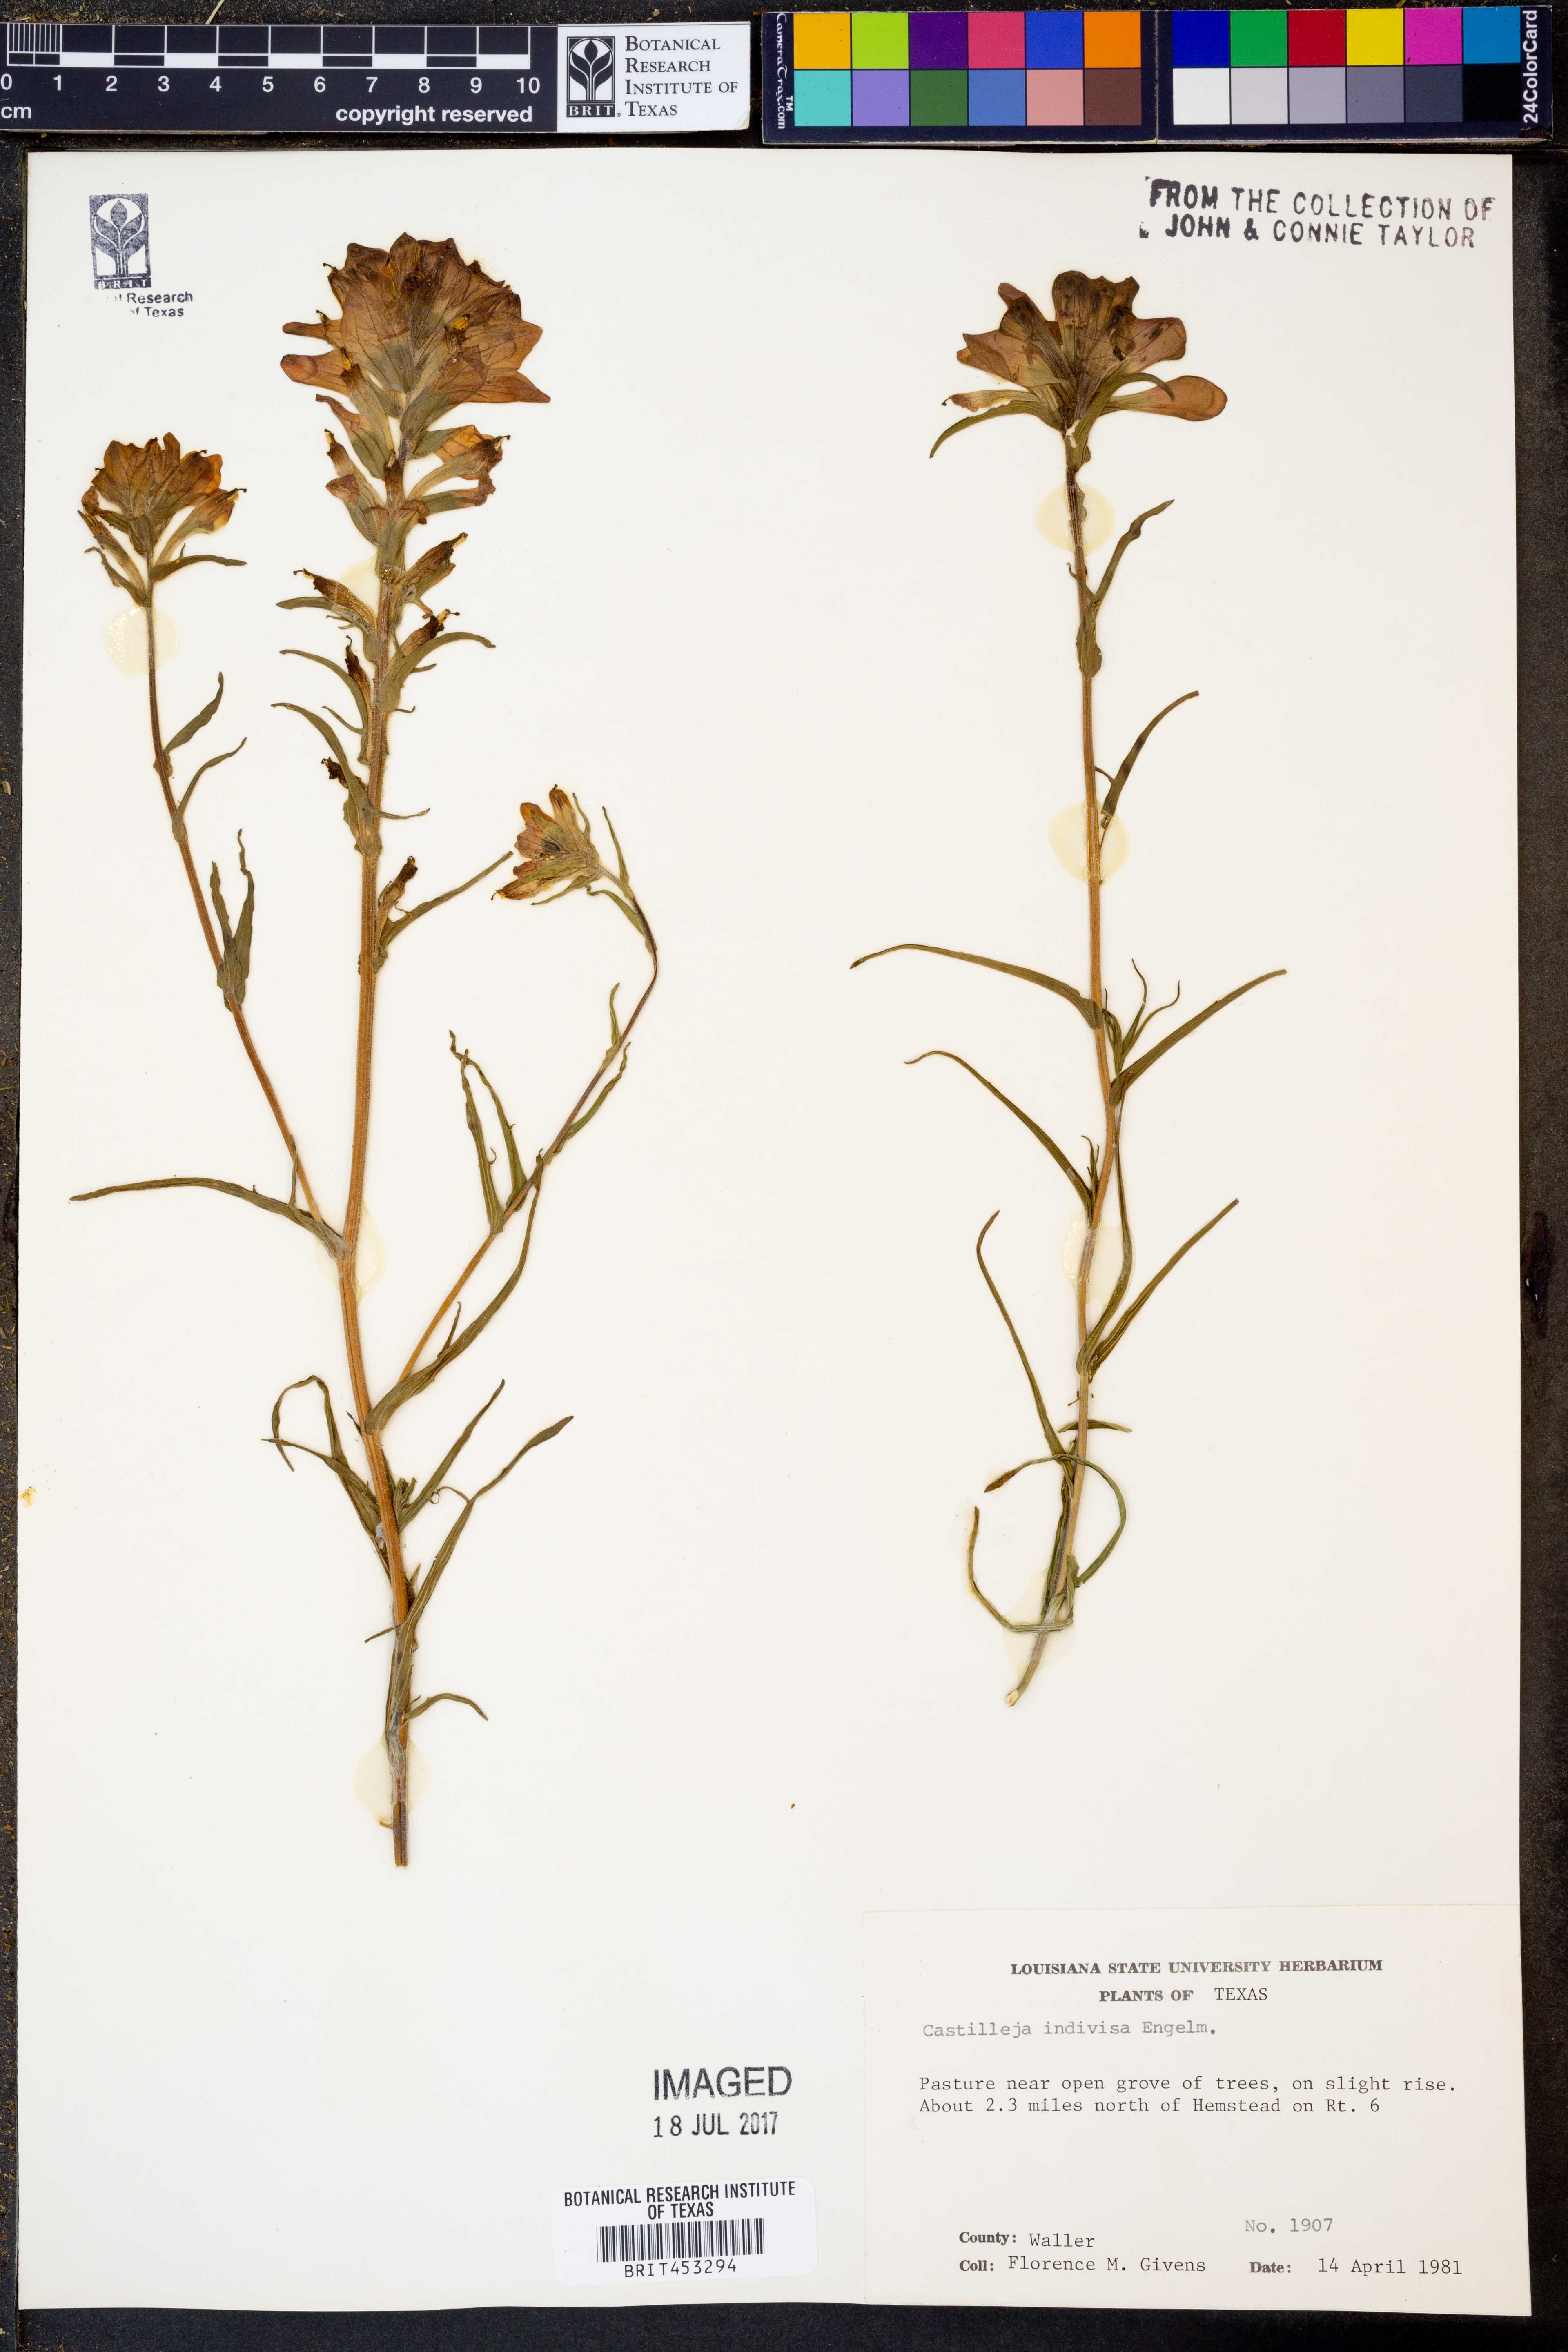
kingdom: Plantae
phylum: Tracheophyta
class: Magnoliopsida
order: Lamiales
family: Orobanchaceae
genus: Castilleja
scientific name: Castilleja indivisa
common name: Texas paintbrush
